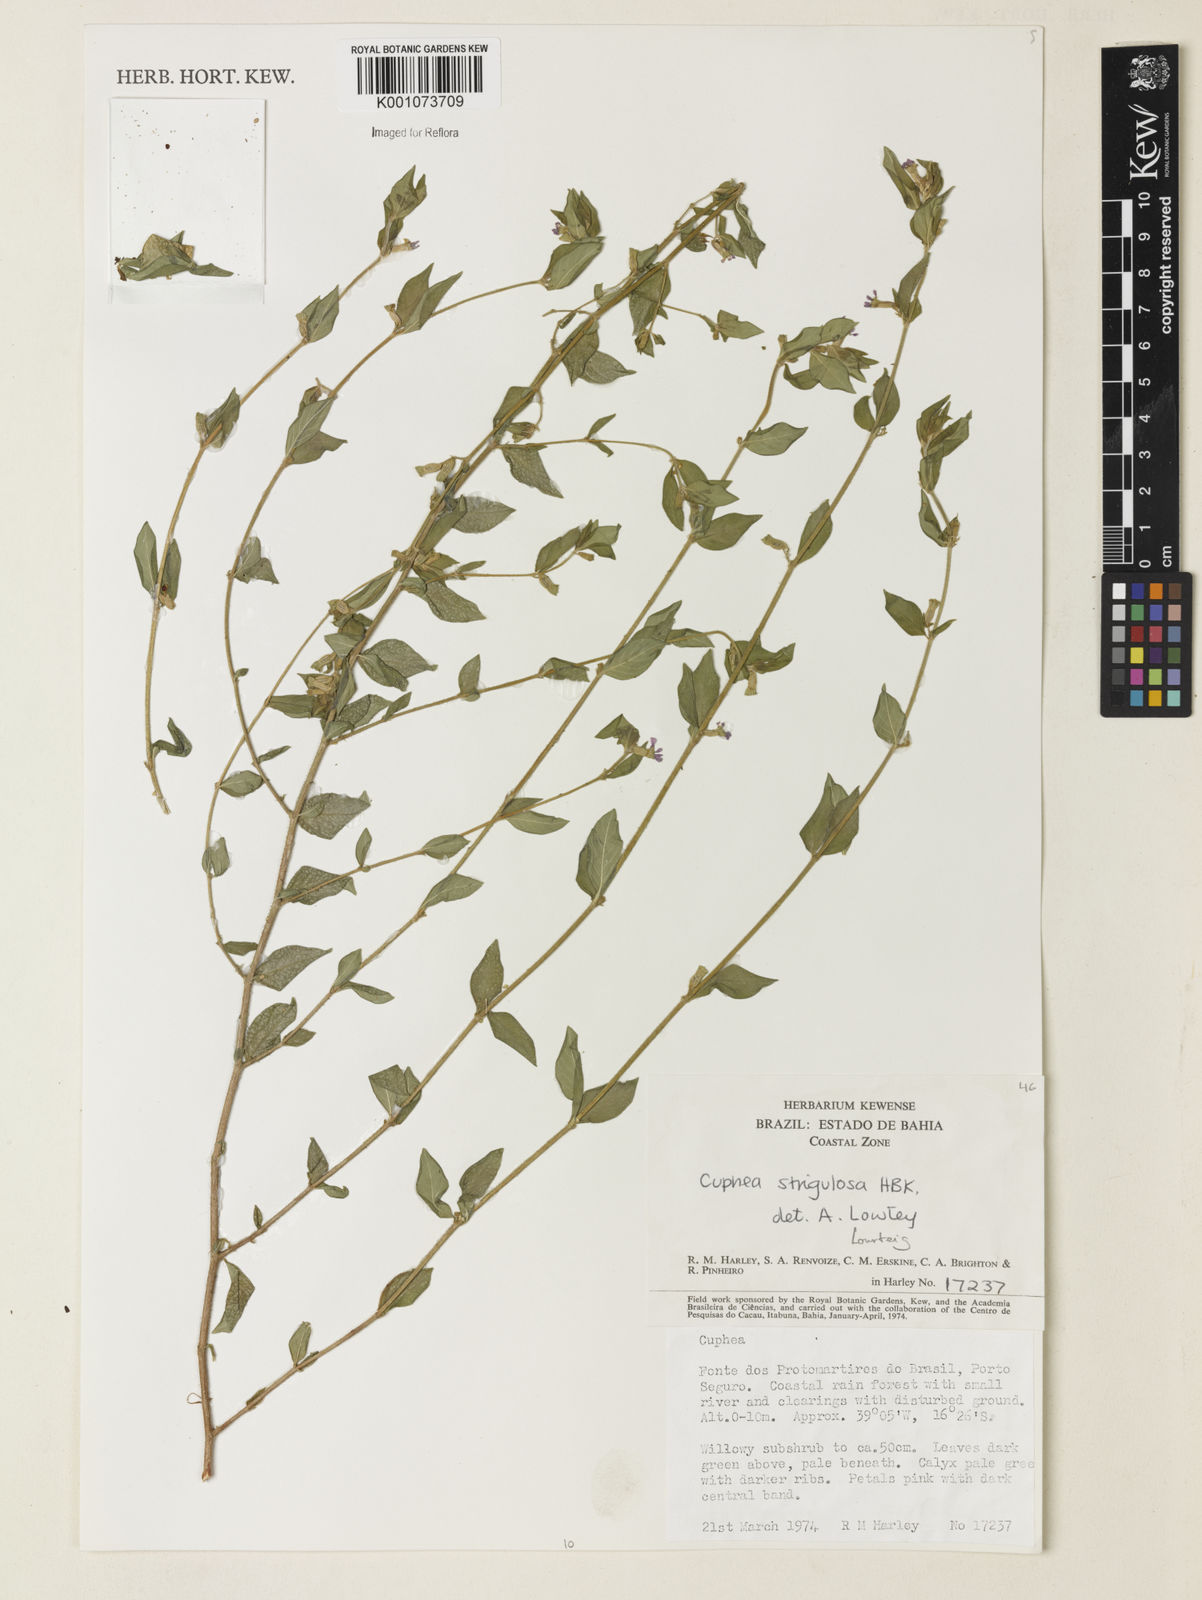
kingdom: Plantae
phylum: Tracheophyta
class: Magnoliopsida
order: Myrtales
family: Lythraceae
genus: Cuphea
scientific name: Cuphea strigulosa
